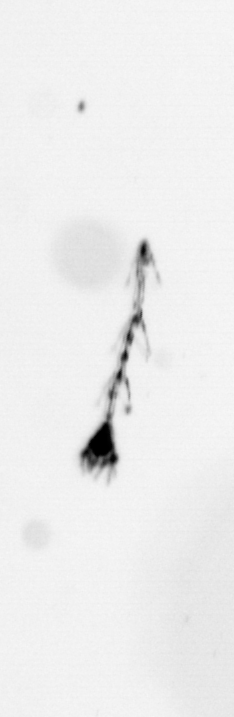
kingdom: Chromista
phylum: Ochrophyta
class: Bacillariophyceae
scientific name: Bacillariophyceae
